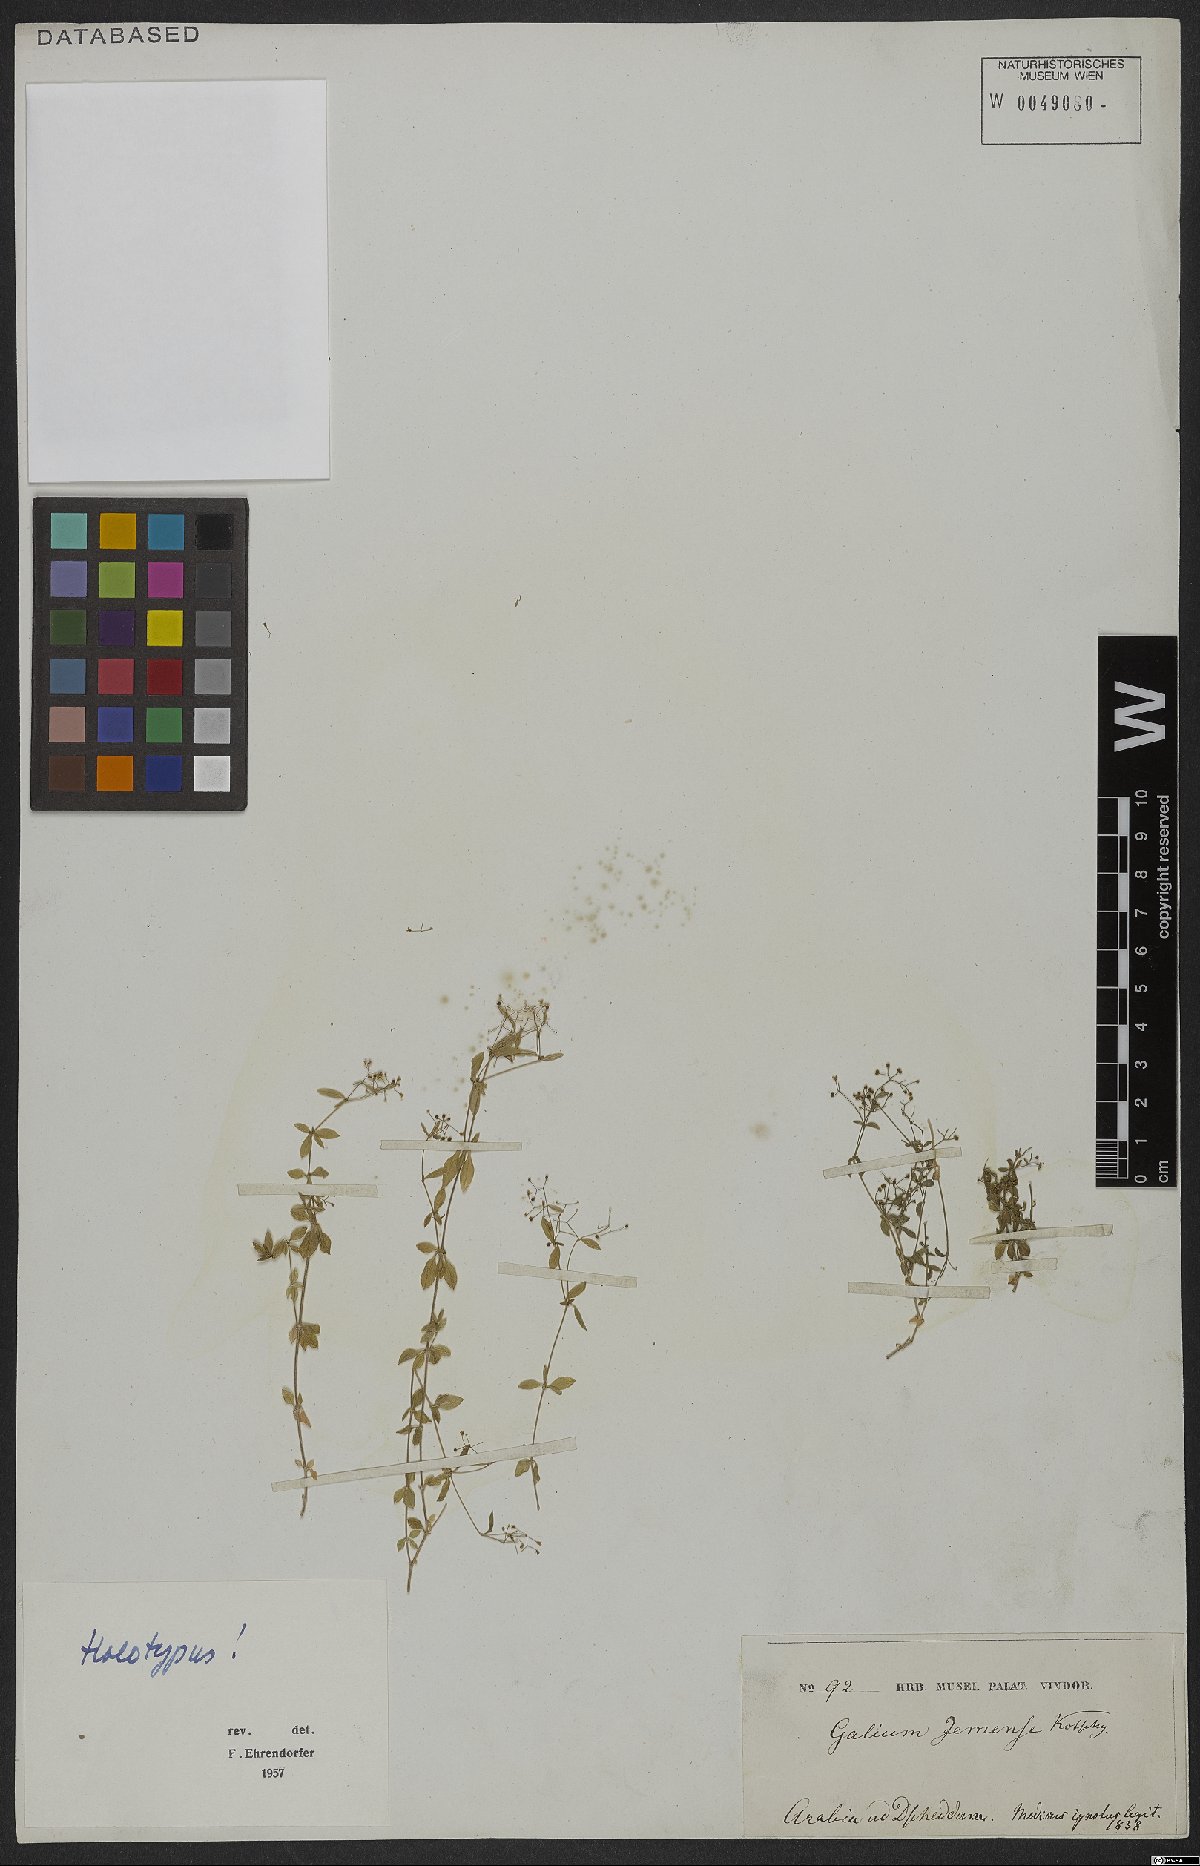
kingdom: Plantae
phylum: Tracheophyta
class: Magnoliopsida
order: Gentianales
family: Rubiaceae
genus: Galium
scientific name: Galium jemense
